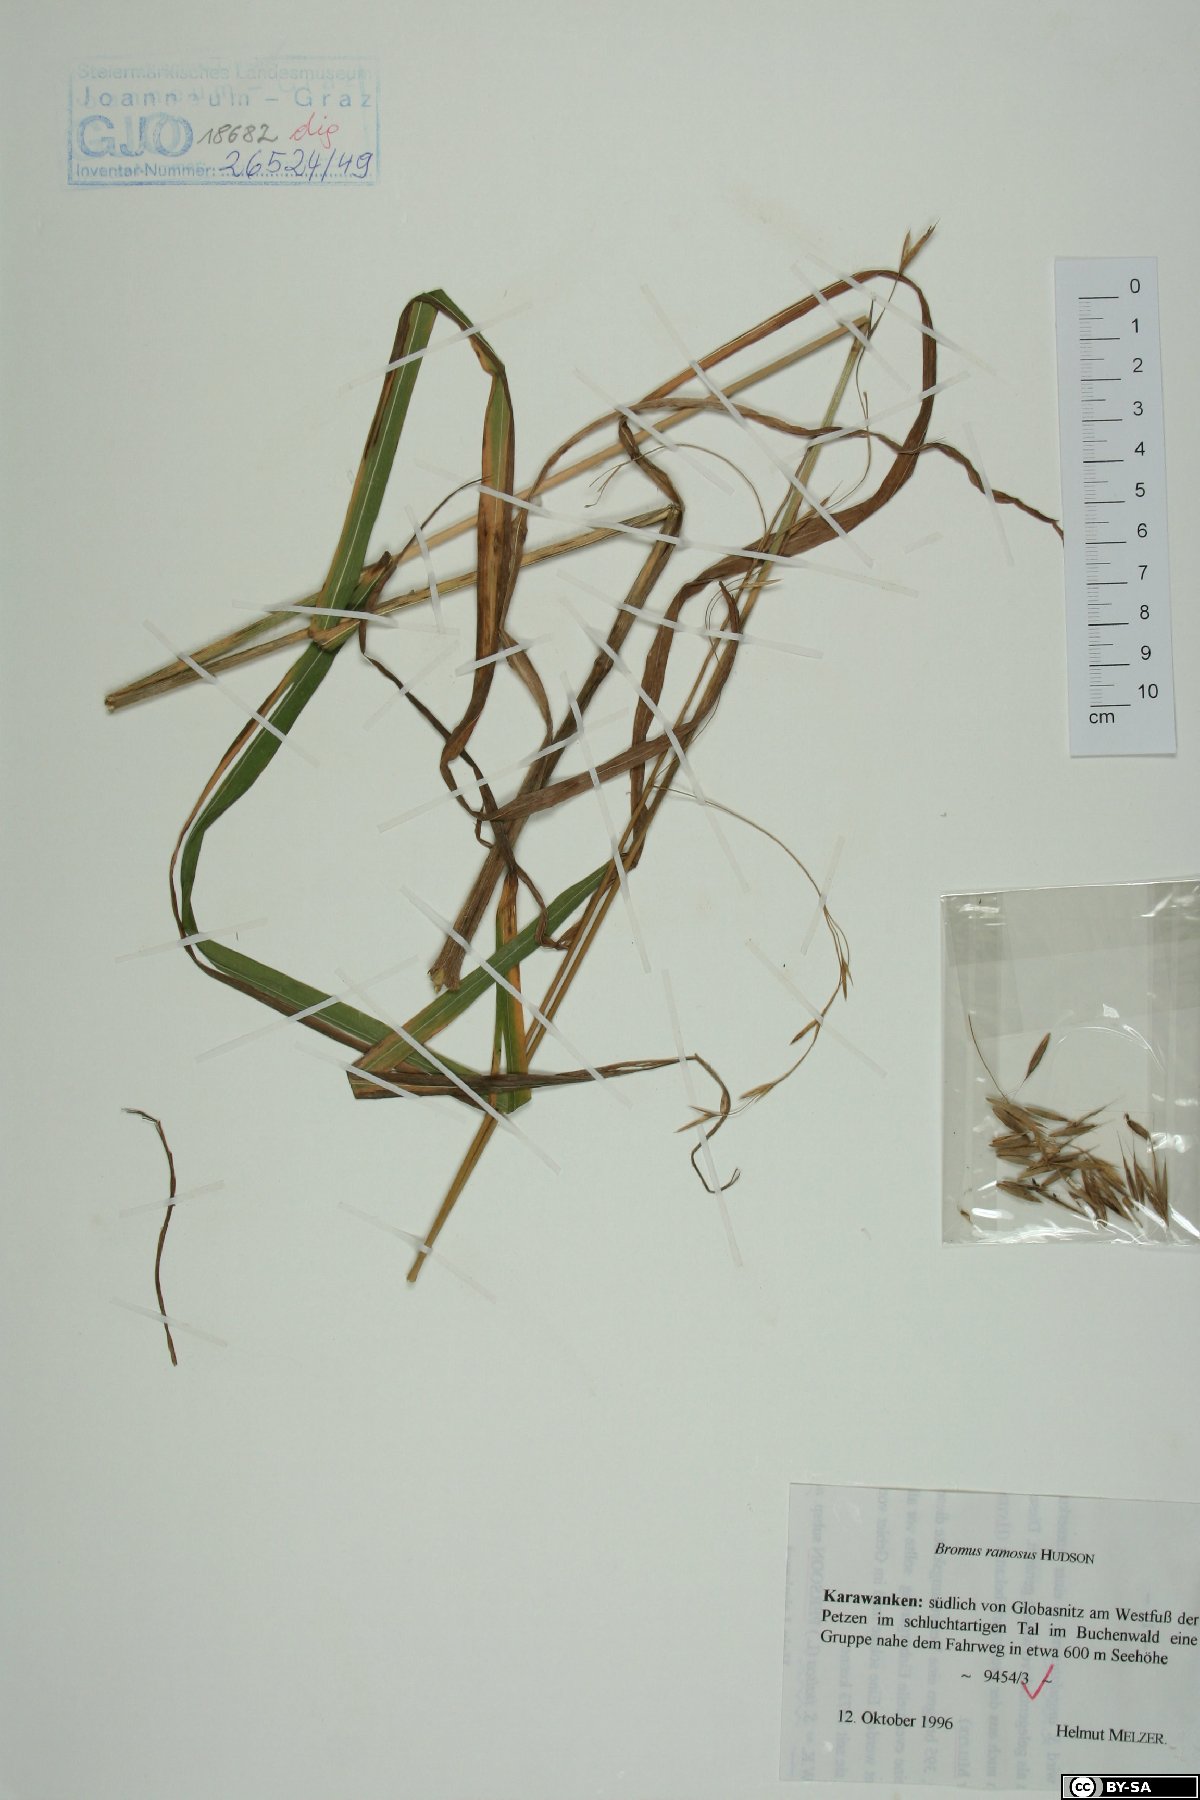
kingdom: Plantae
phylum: Tracheophyta
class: Liliopsida
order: Poales
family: Poaceae
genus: Bromus
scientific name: Bromus ramosus
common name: Hairy brome
